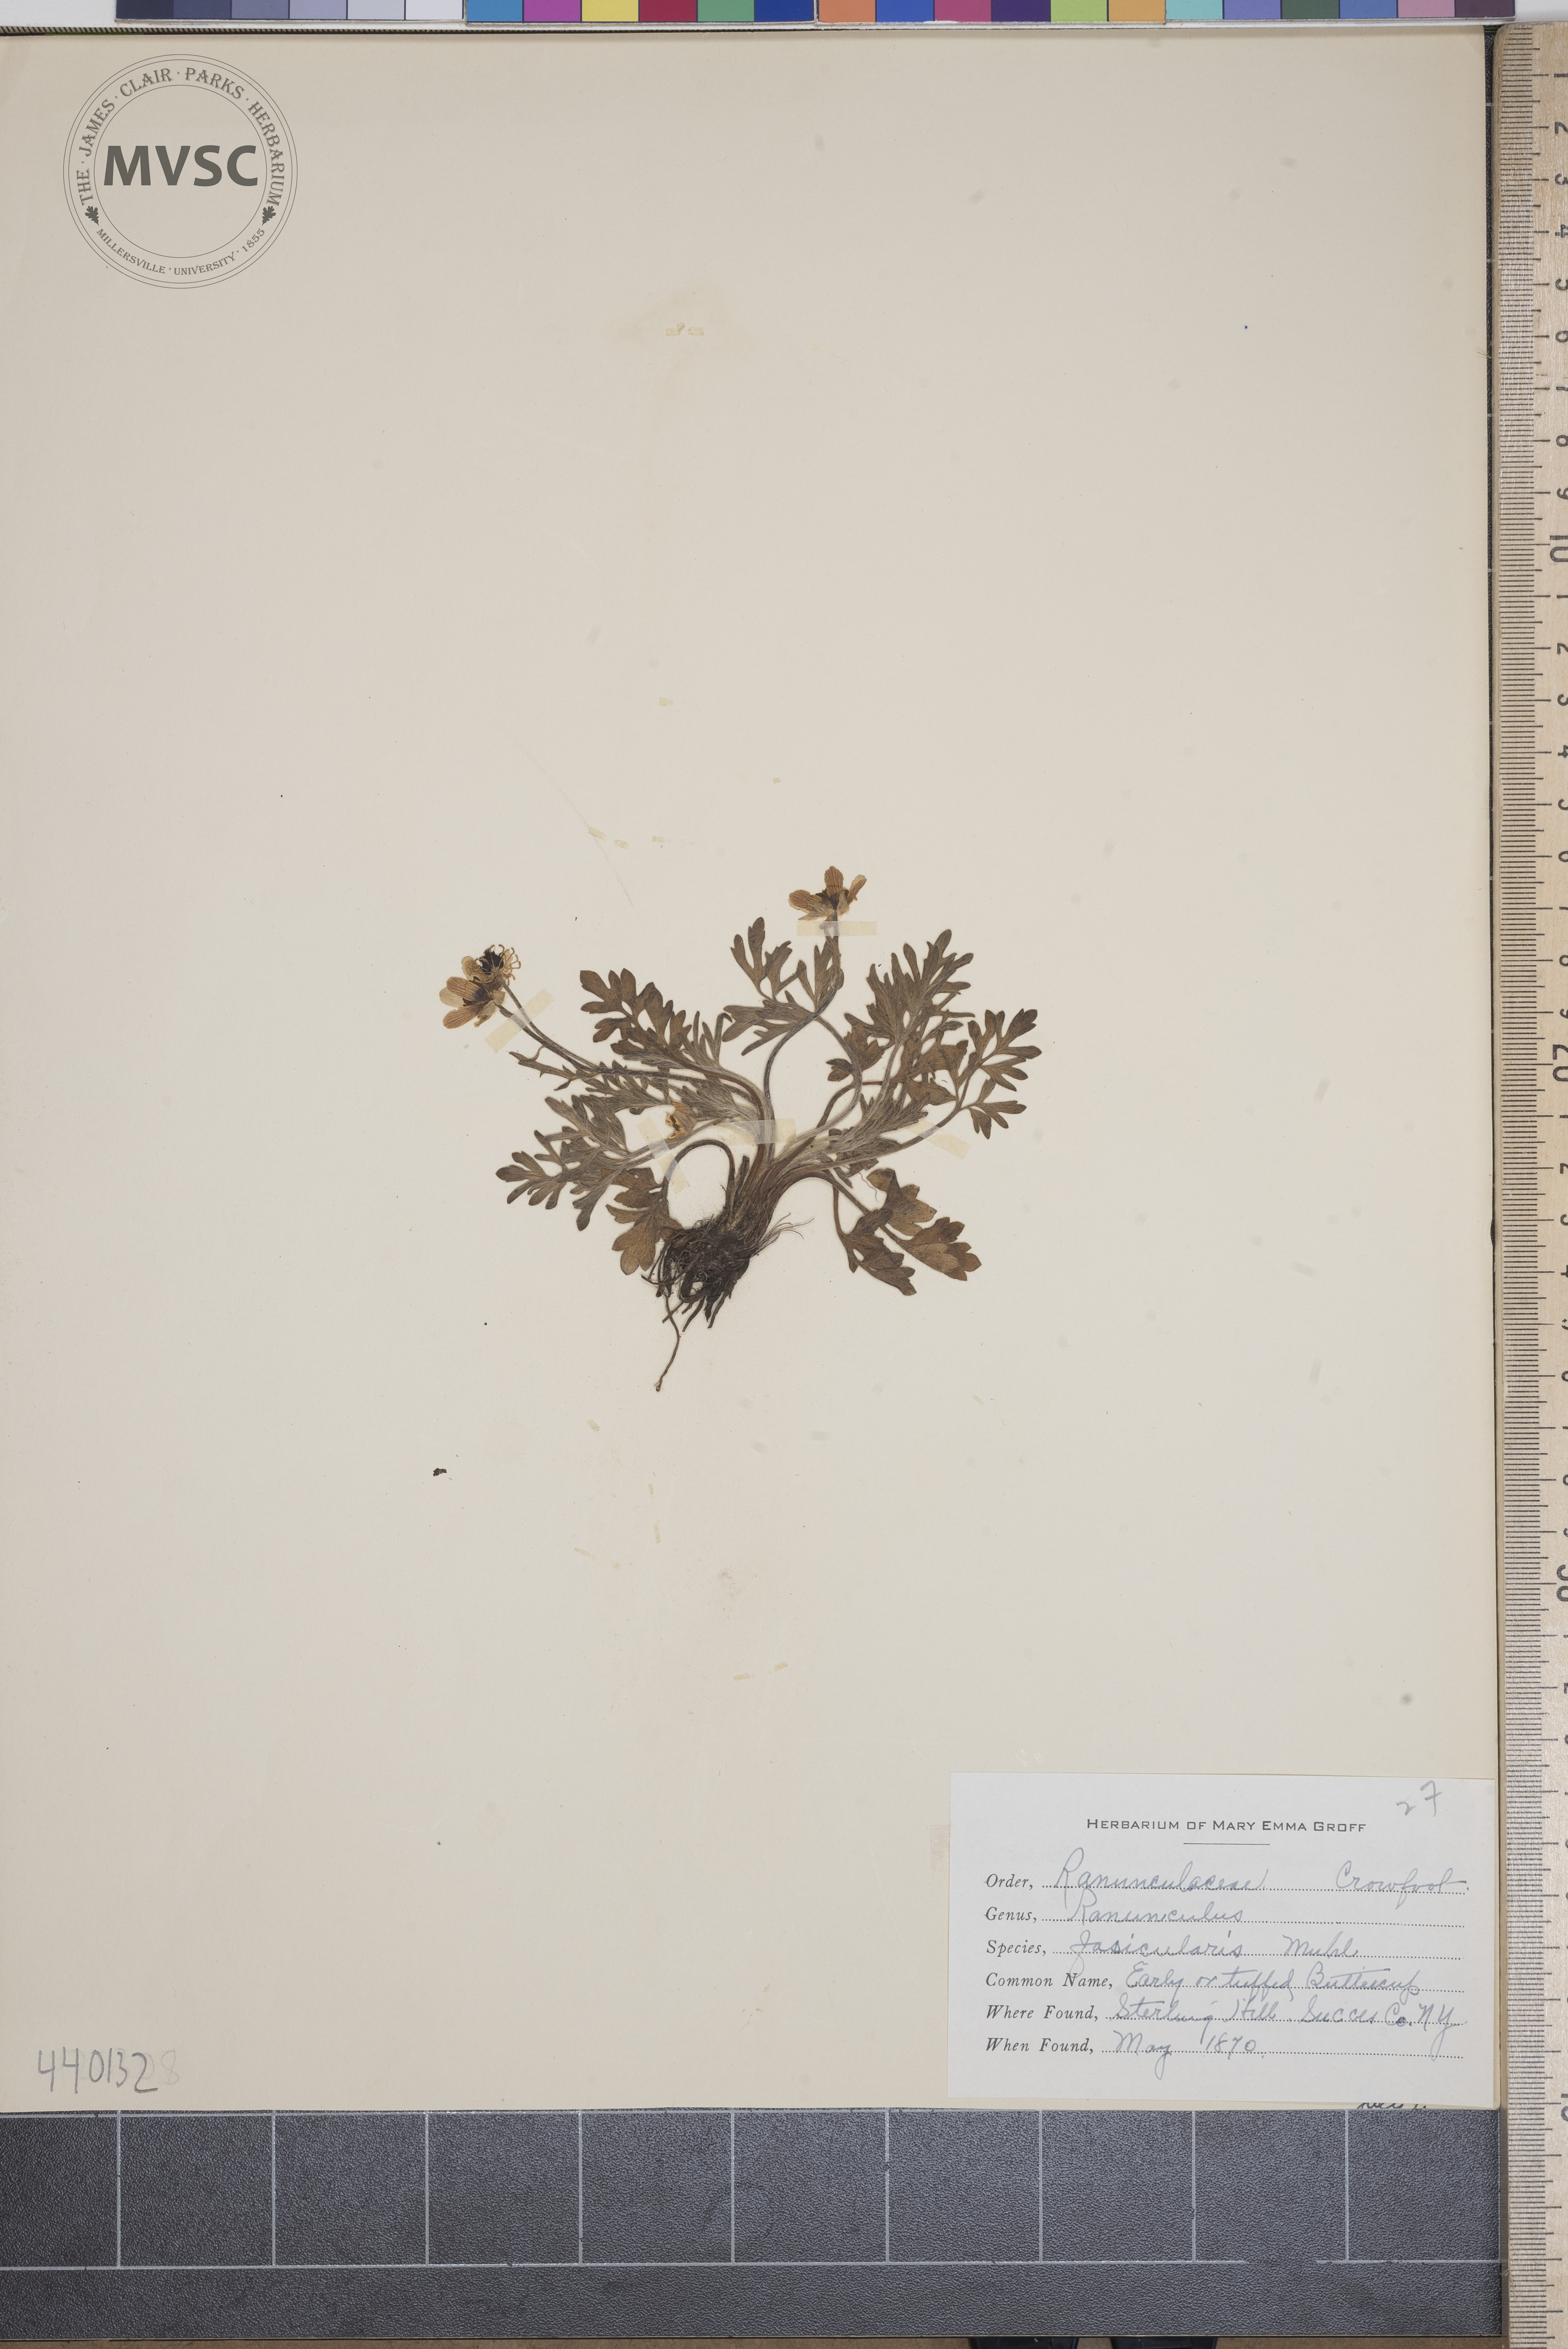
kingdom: Plantae
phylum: Tracheophyta
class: Magnoliopsida
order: Ranunculales
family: Ranunculaceae
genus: Ranunculus
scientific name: Ranunculus fascicularis
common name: Early buttercup
